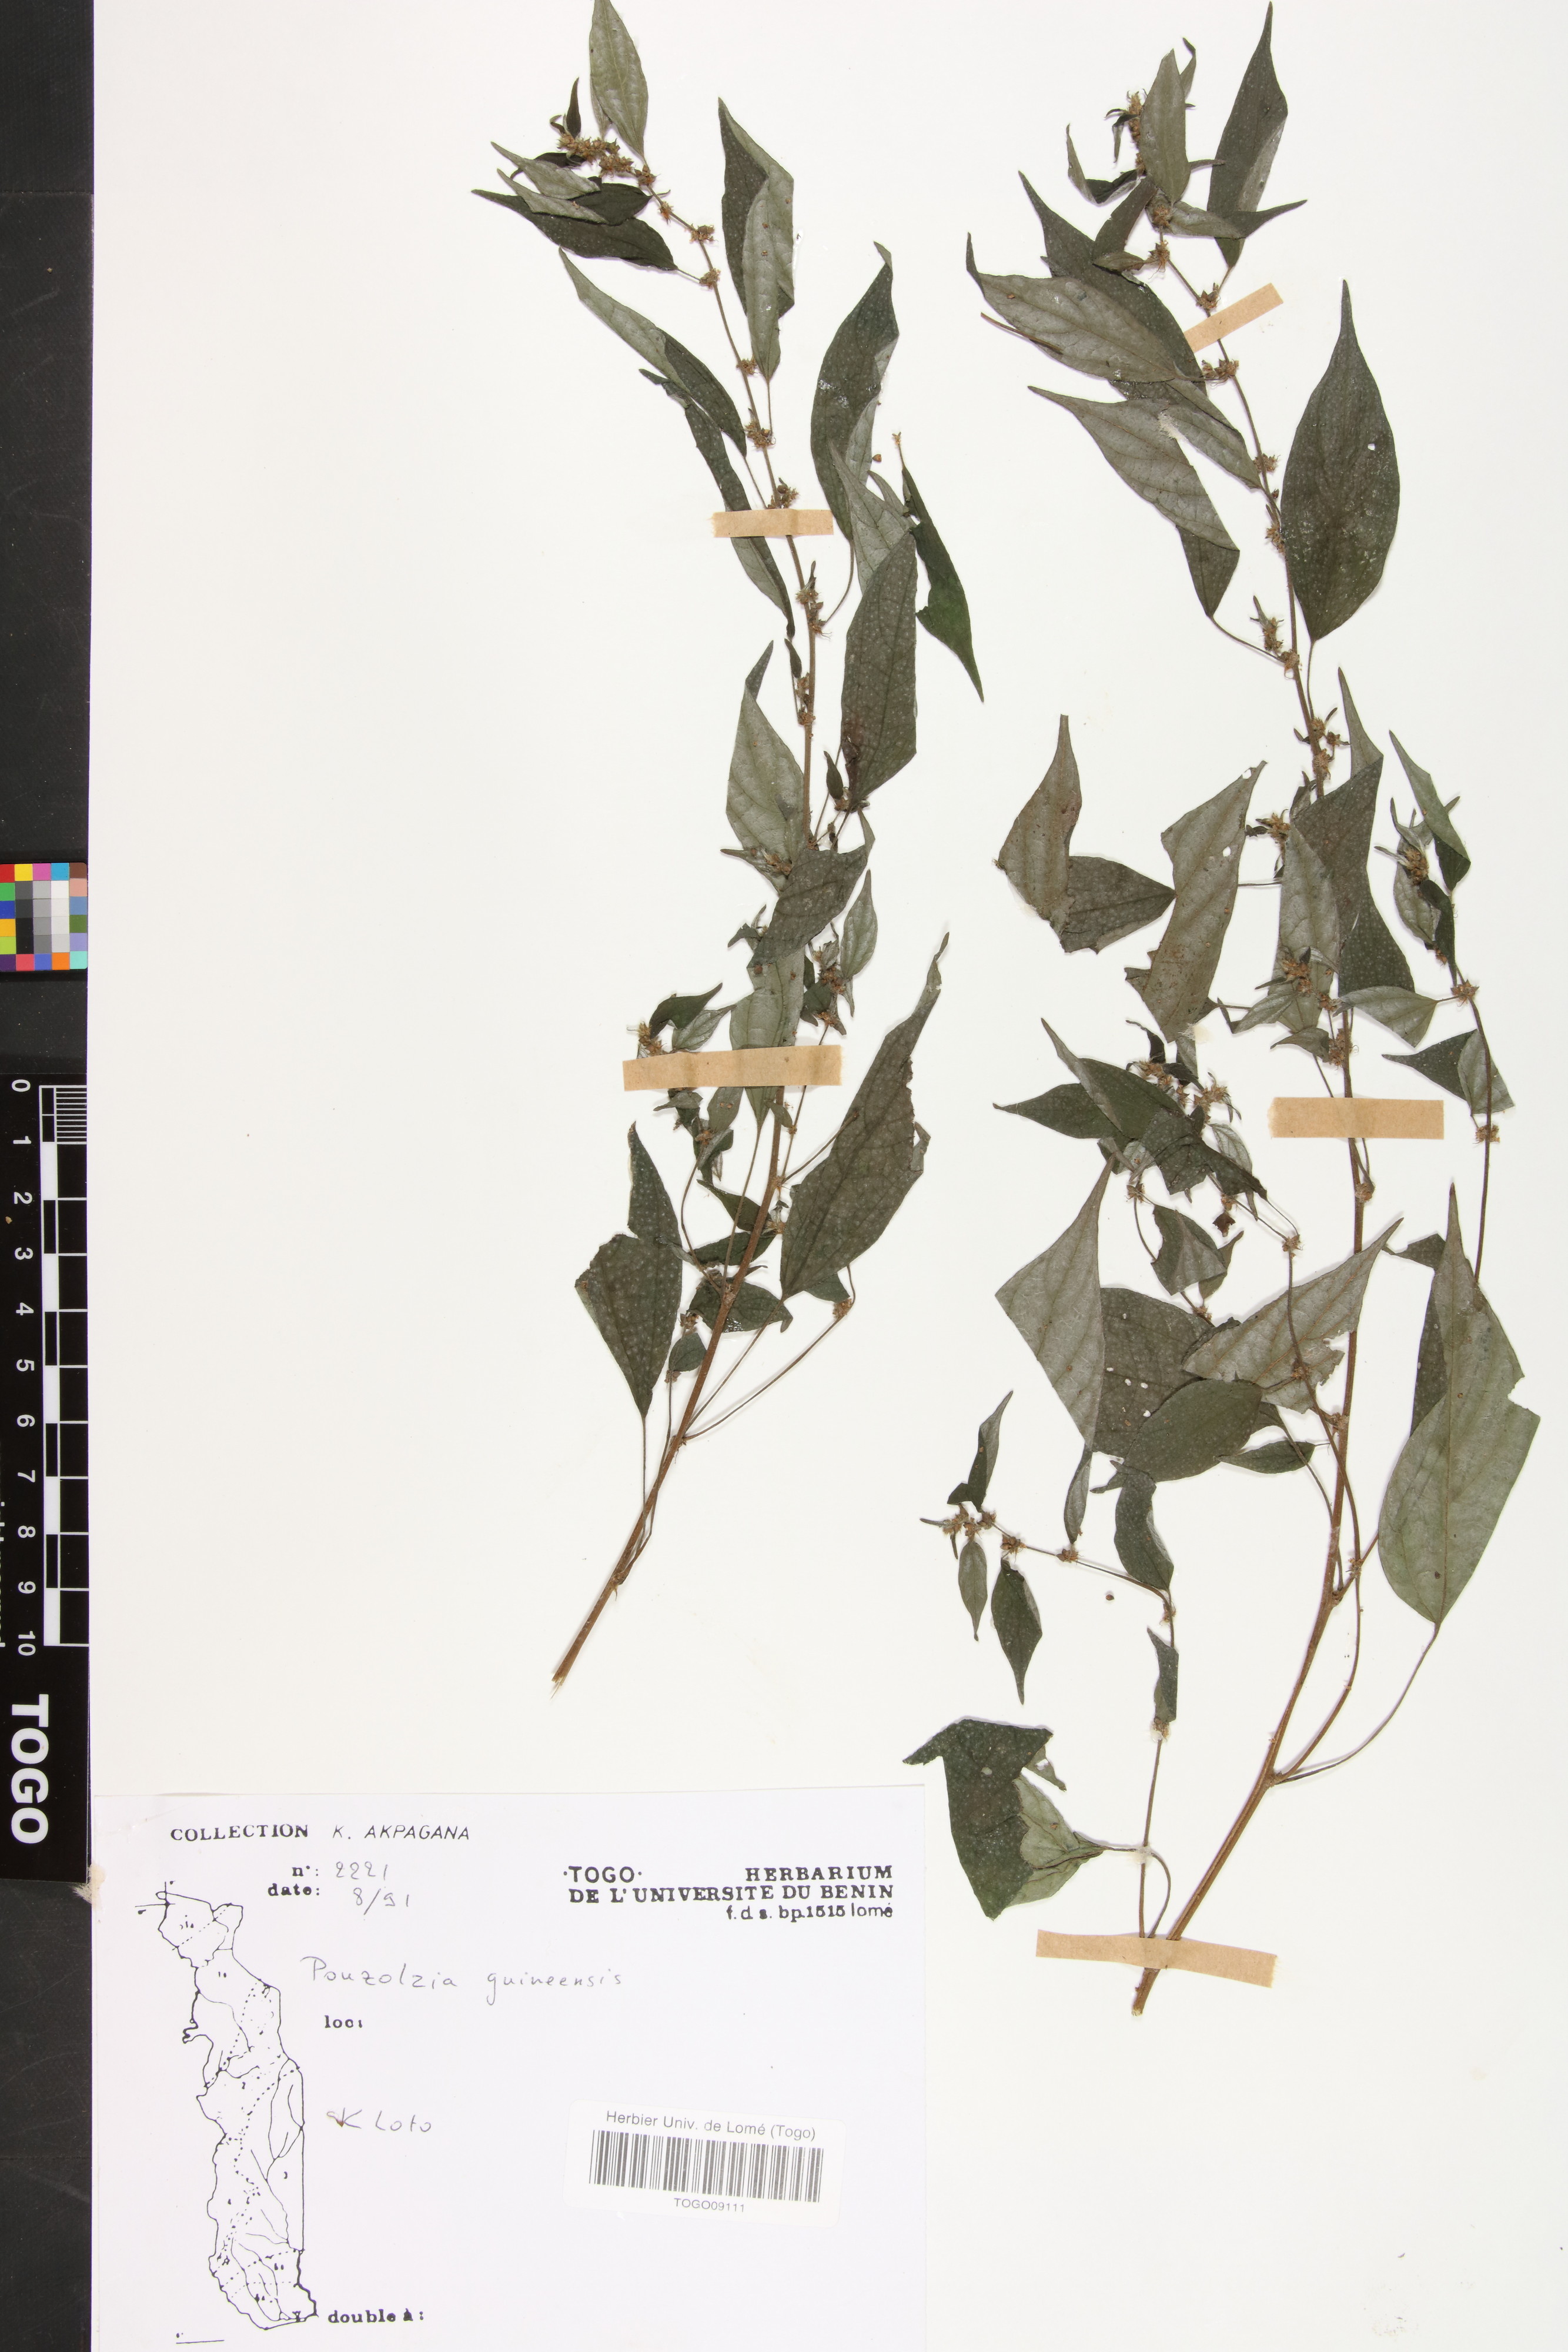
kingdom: Plantae
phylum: Tracheophyta
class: Magnoliopsida
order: Rosales
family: Urticaceae
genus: Pouzolzia
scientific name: Pouzolzia guineensis
